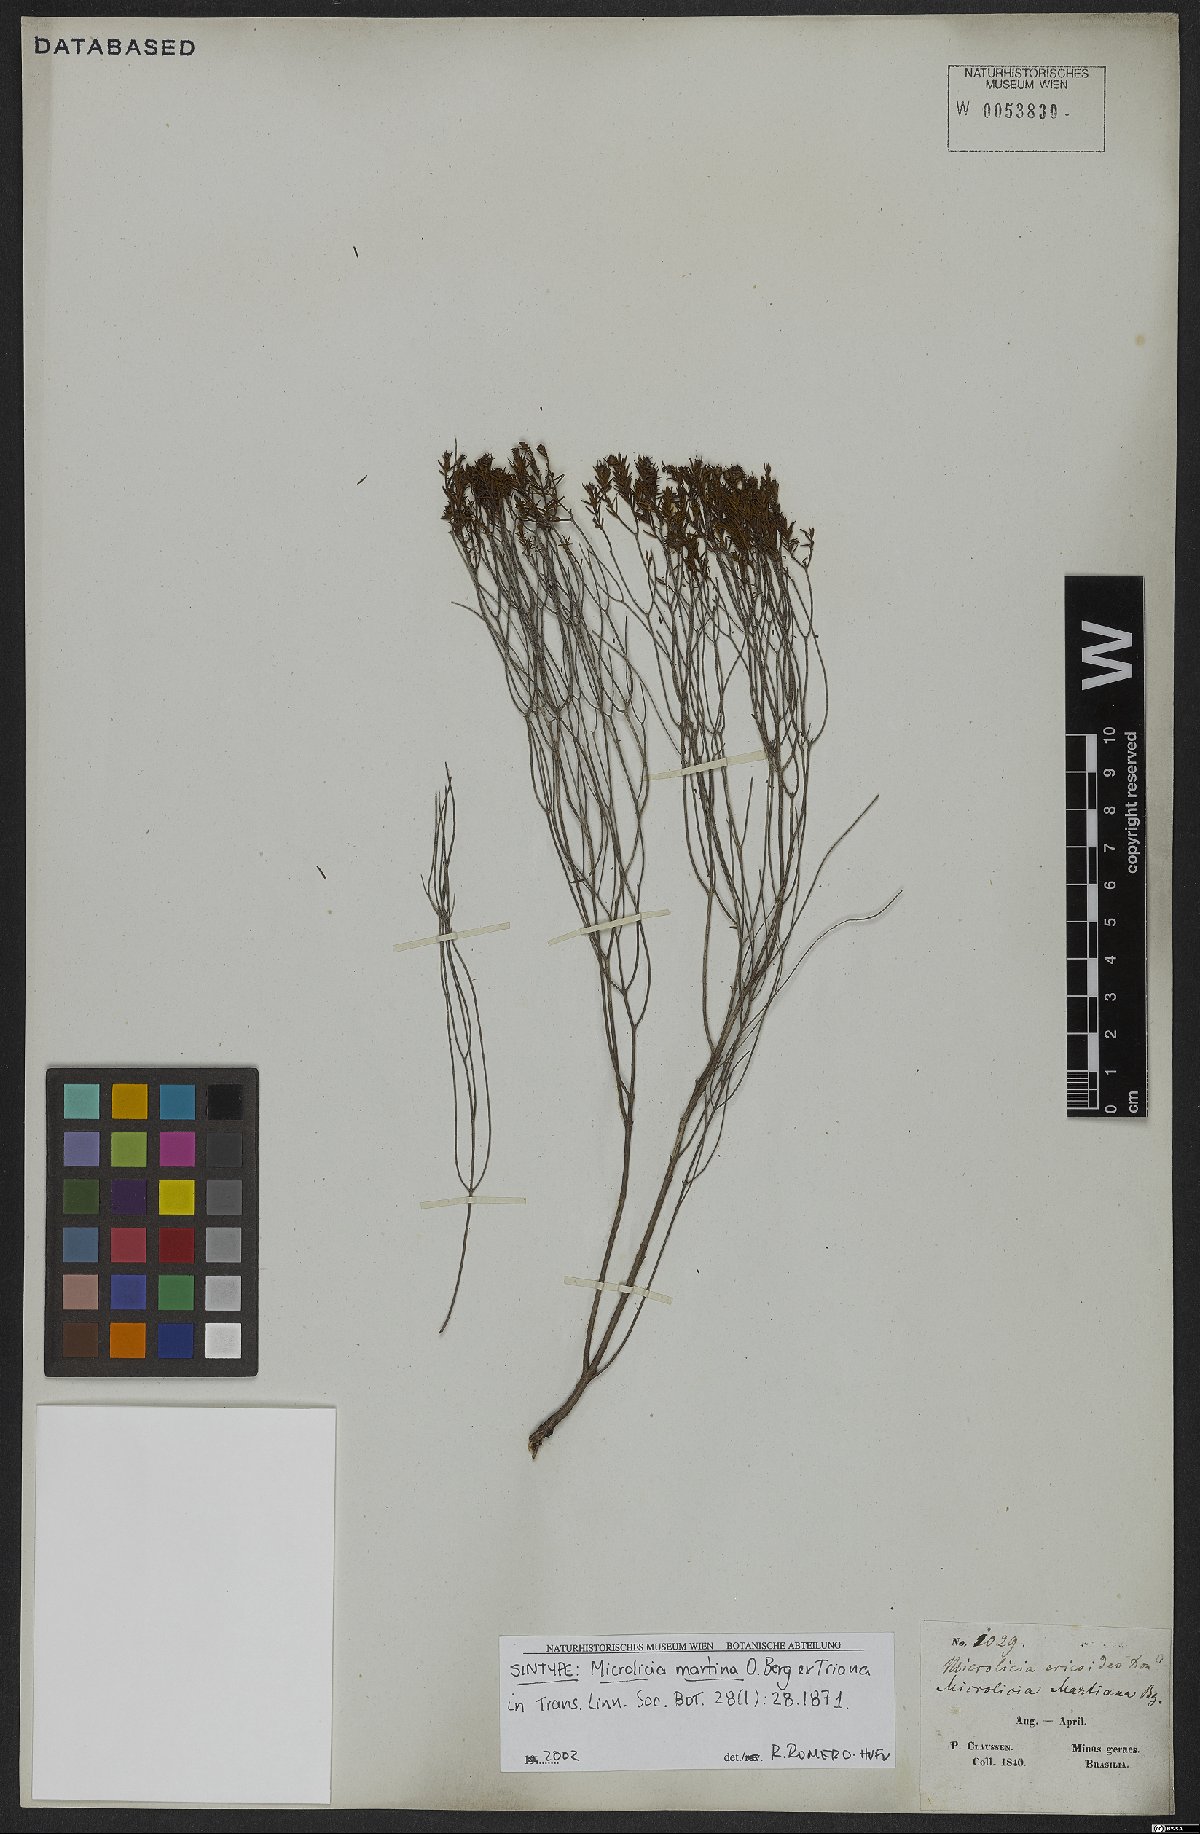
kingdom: Plantae
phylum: Tracheophyta
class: Magnoliopsida
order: Myrtales
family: Melastomataceae
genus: Microlicia
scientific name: Microlicia martiana
